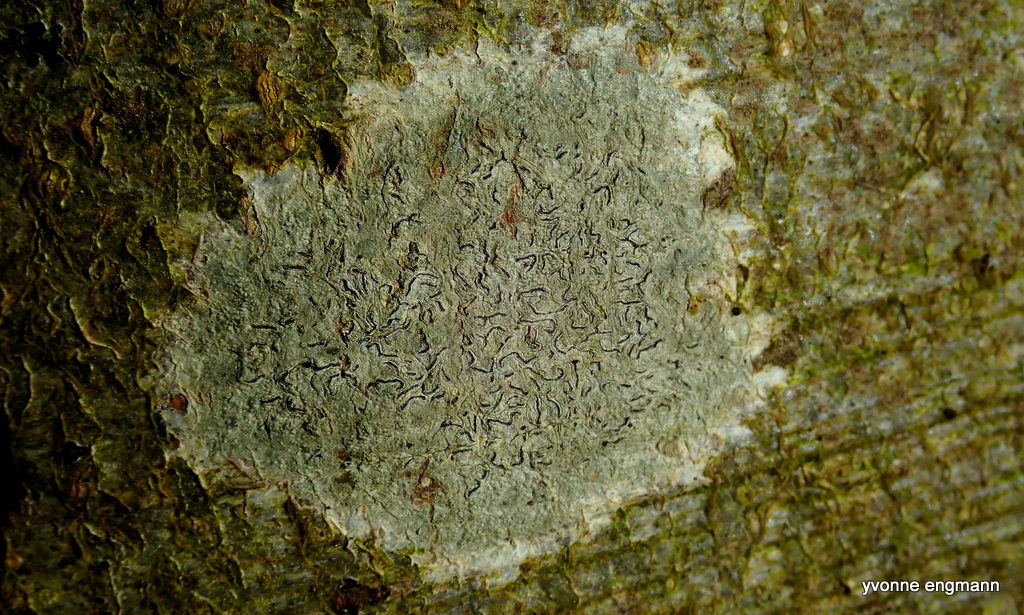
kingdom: Fungi
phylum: Ascomycota
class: Lecanoromycetes
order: Ostropales
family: Graphidaceae
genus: Graphis
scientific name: Graphis scripta
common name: almindelig skriftlav
